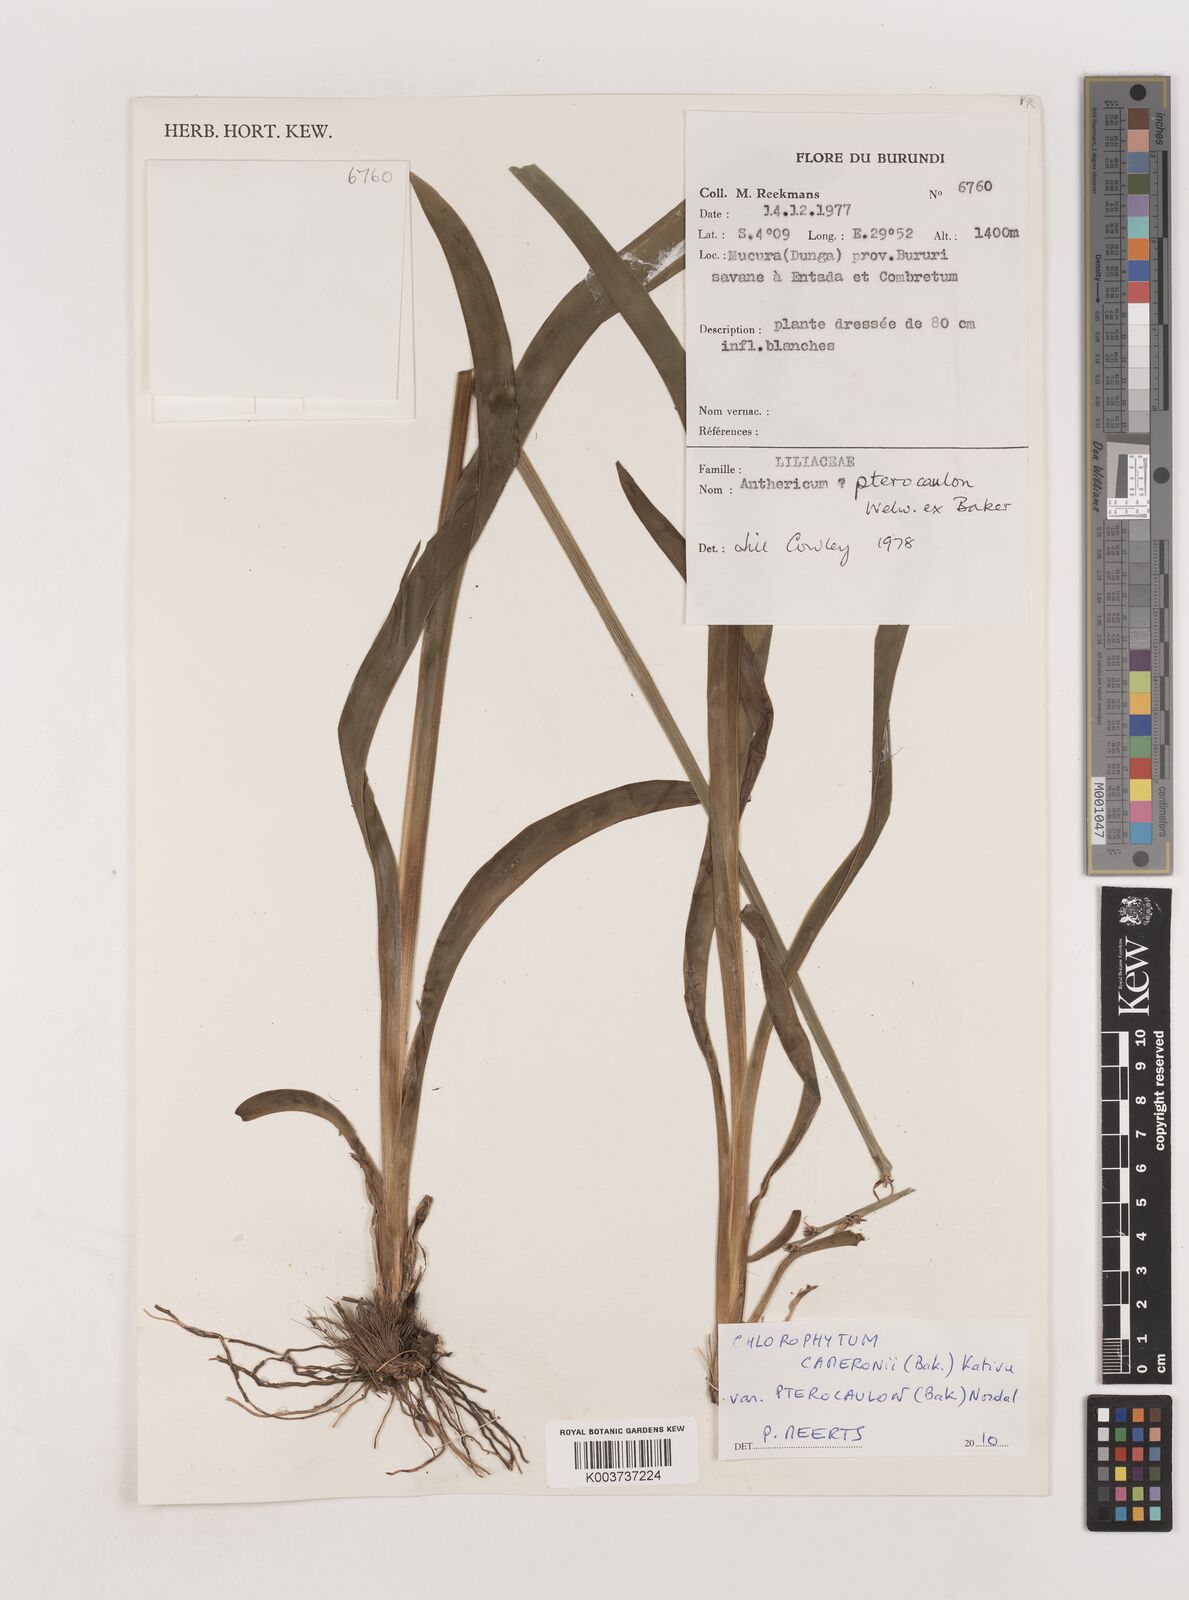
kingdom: Plantae
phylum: Tracheophyta
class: Liliopsida
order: Asparagales
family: Asparagaceae
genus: Chlorophytum
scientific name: Chlorophytum cameronii
